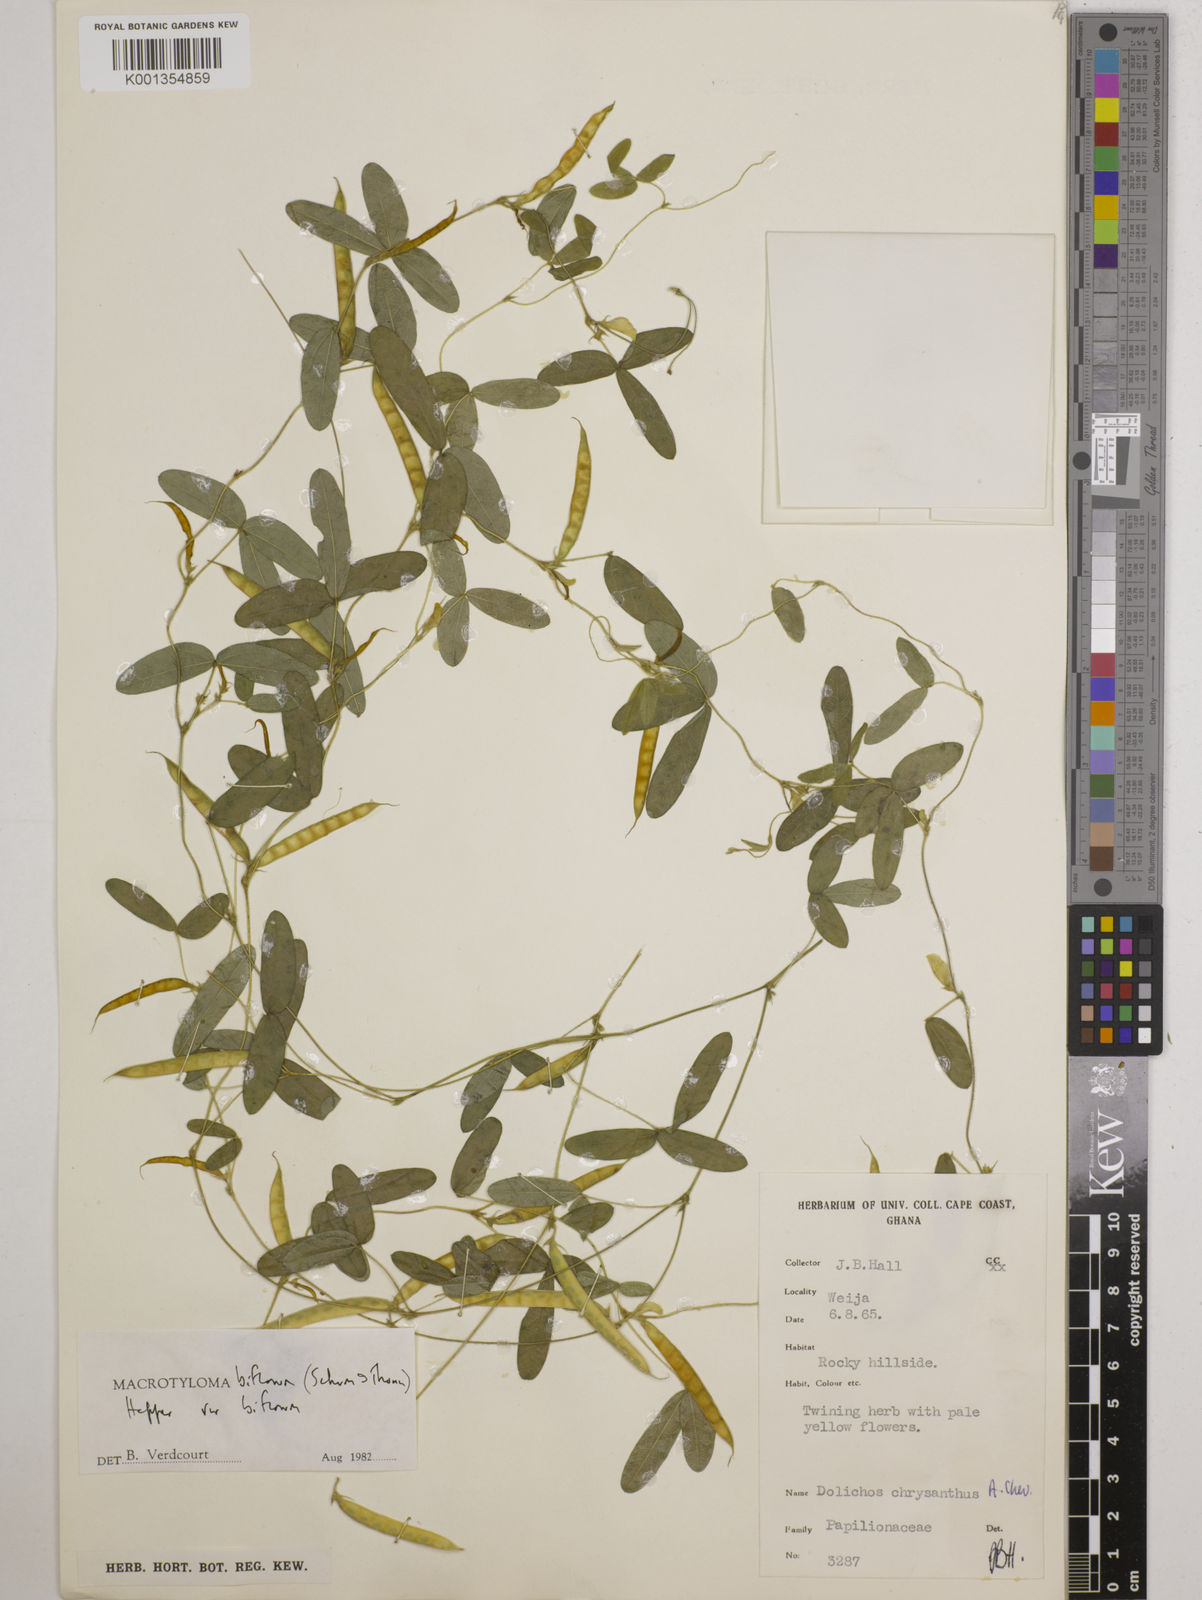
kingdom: Plantae
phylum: Tracheophyta
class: Magnoliopsida
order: Fabales
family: Fabaceae
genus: Macrotyloma
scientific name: Macrotyloma biflorum
